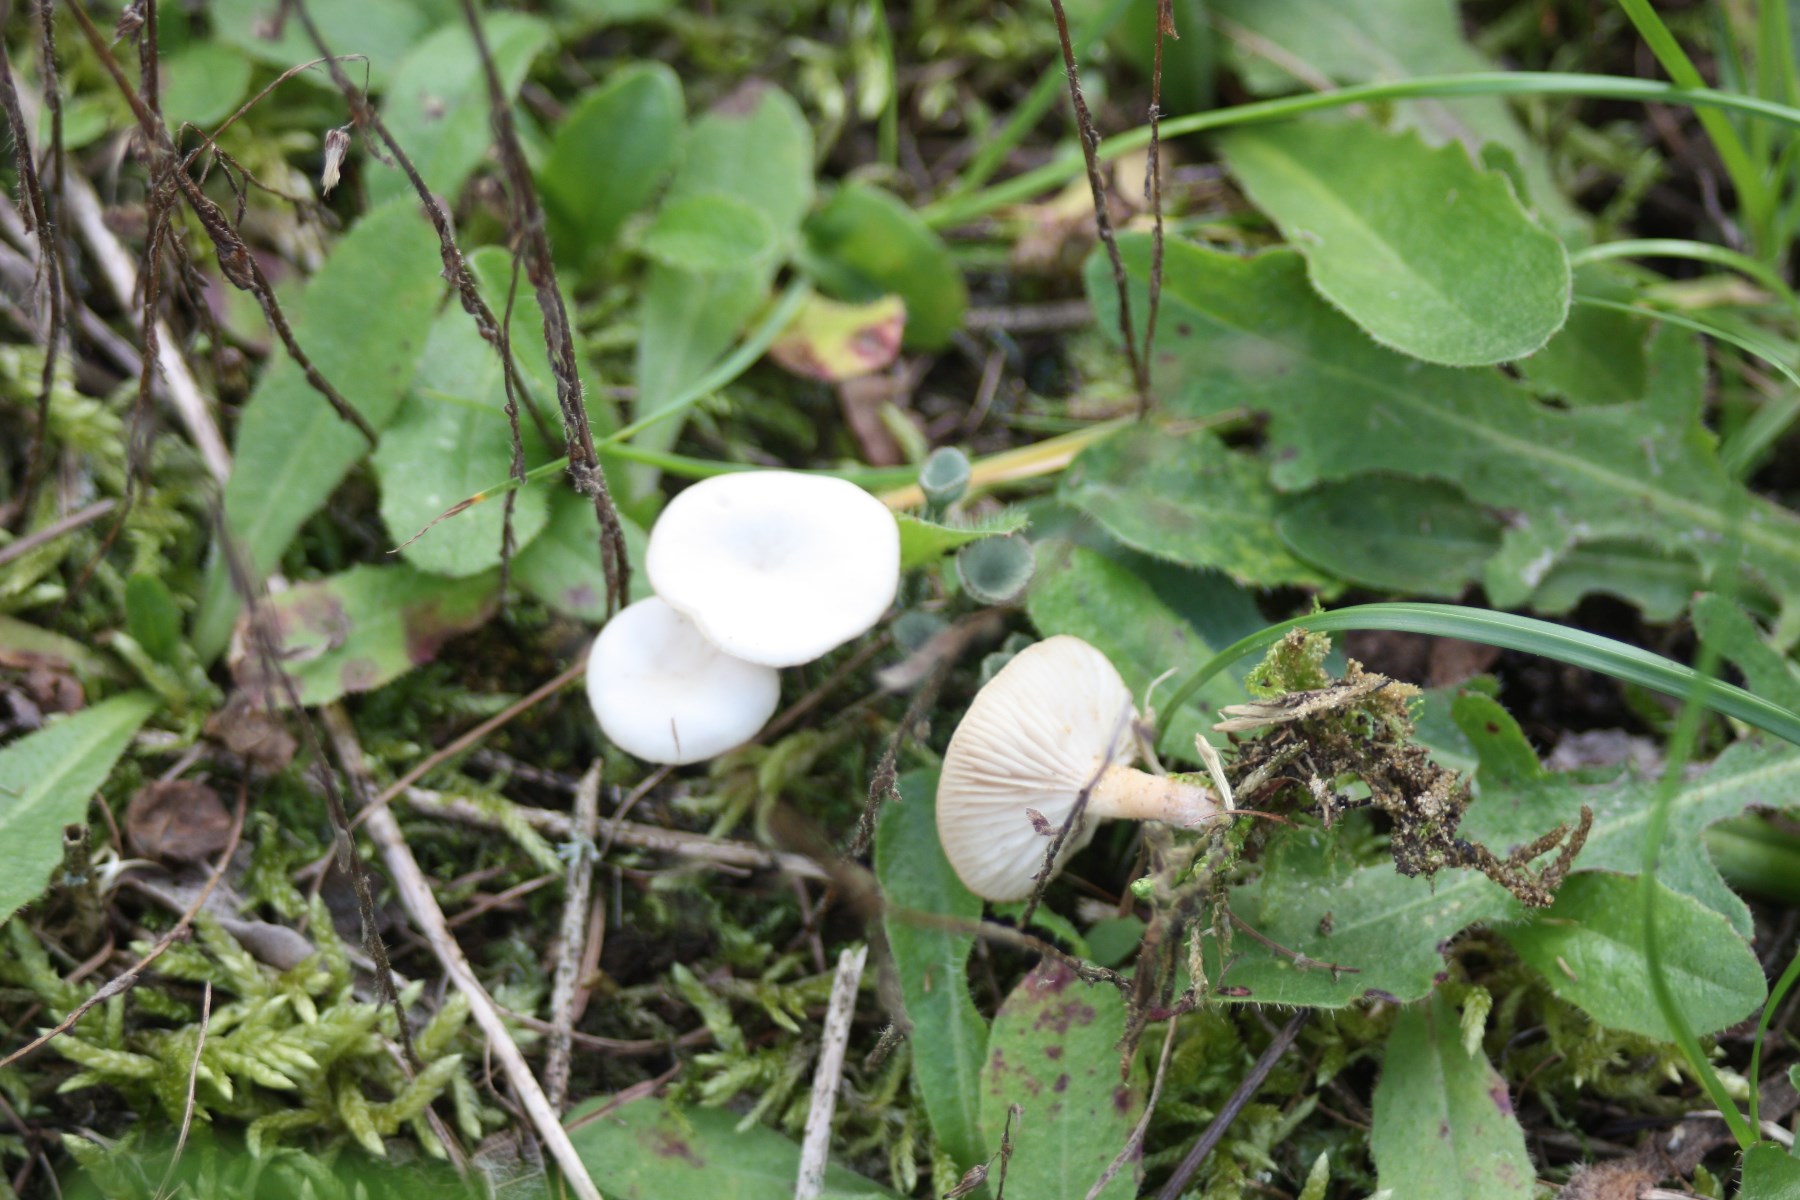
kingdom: Fungi
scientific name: Fungi
